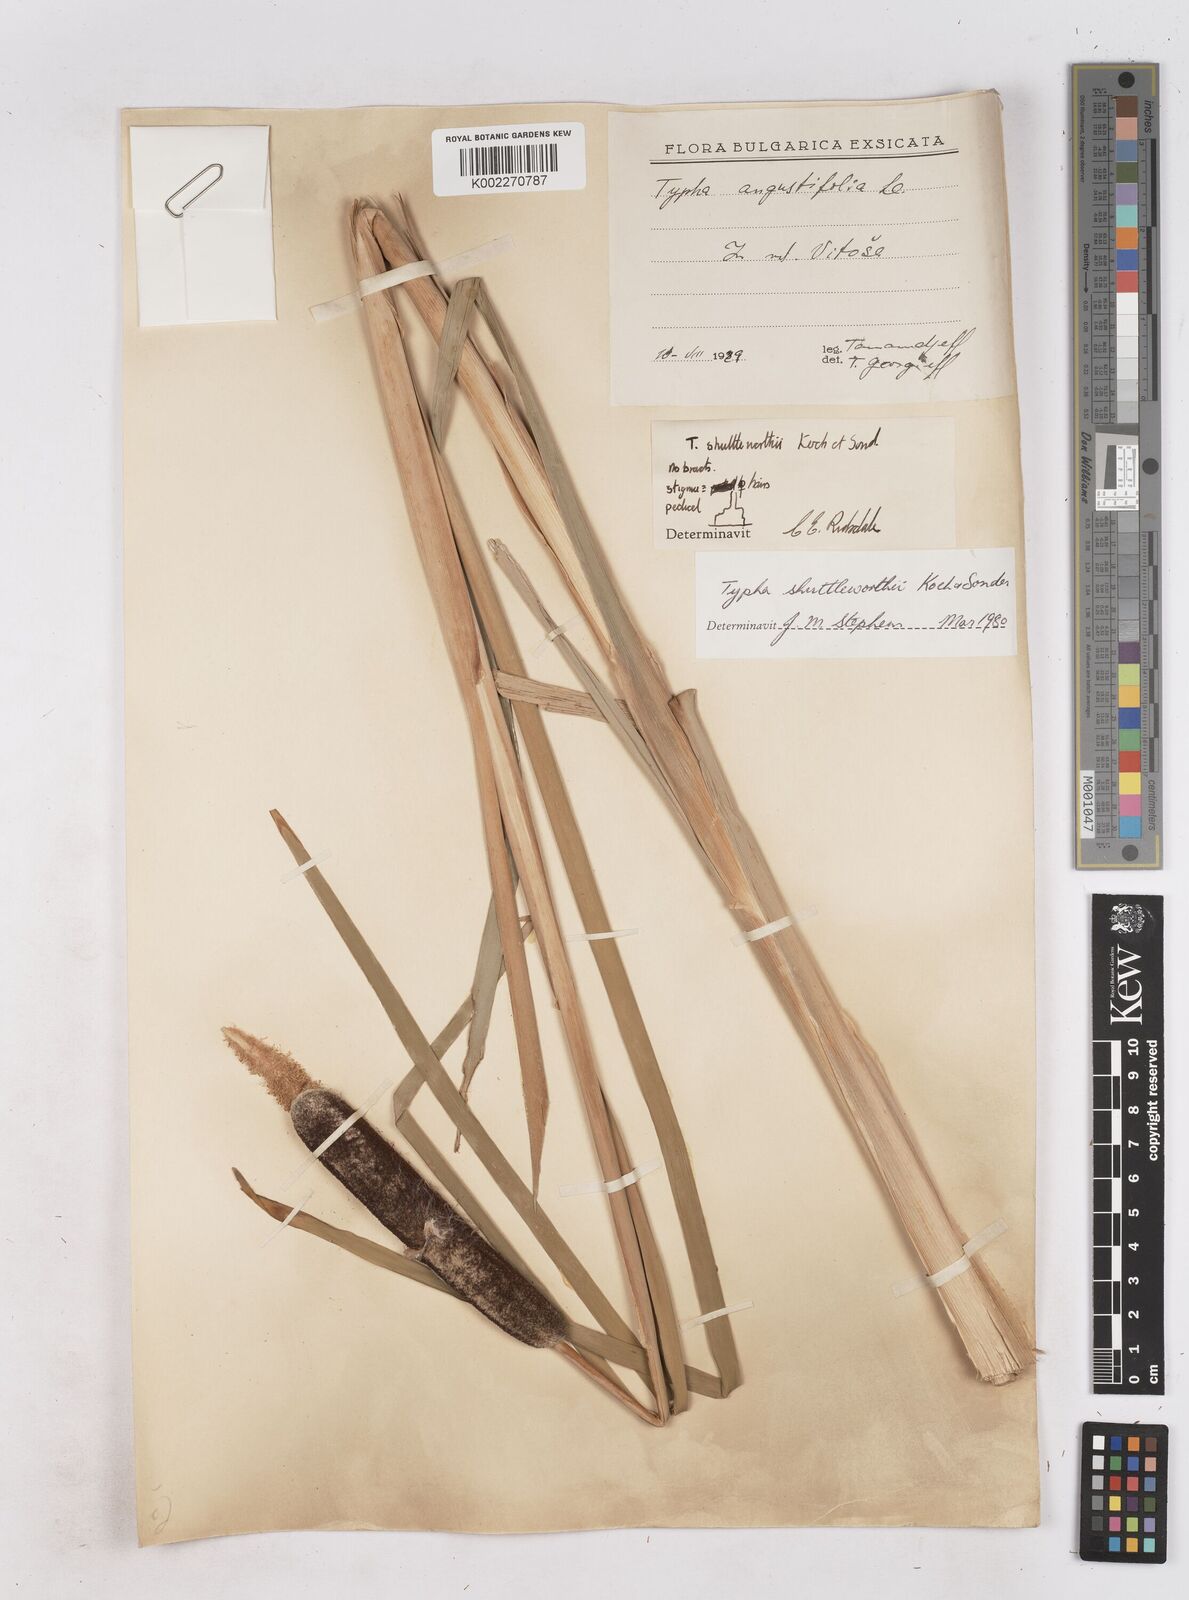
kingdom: Plantae
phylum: Tracheophyta
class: Liliopsida
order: Poales
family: Typhaceae
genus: Typha
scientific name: Typha shuttleworthii
